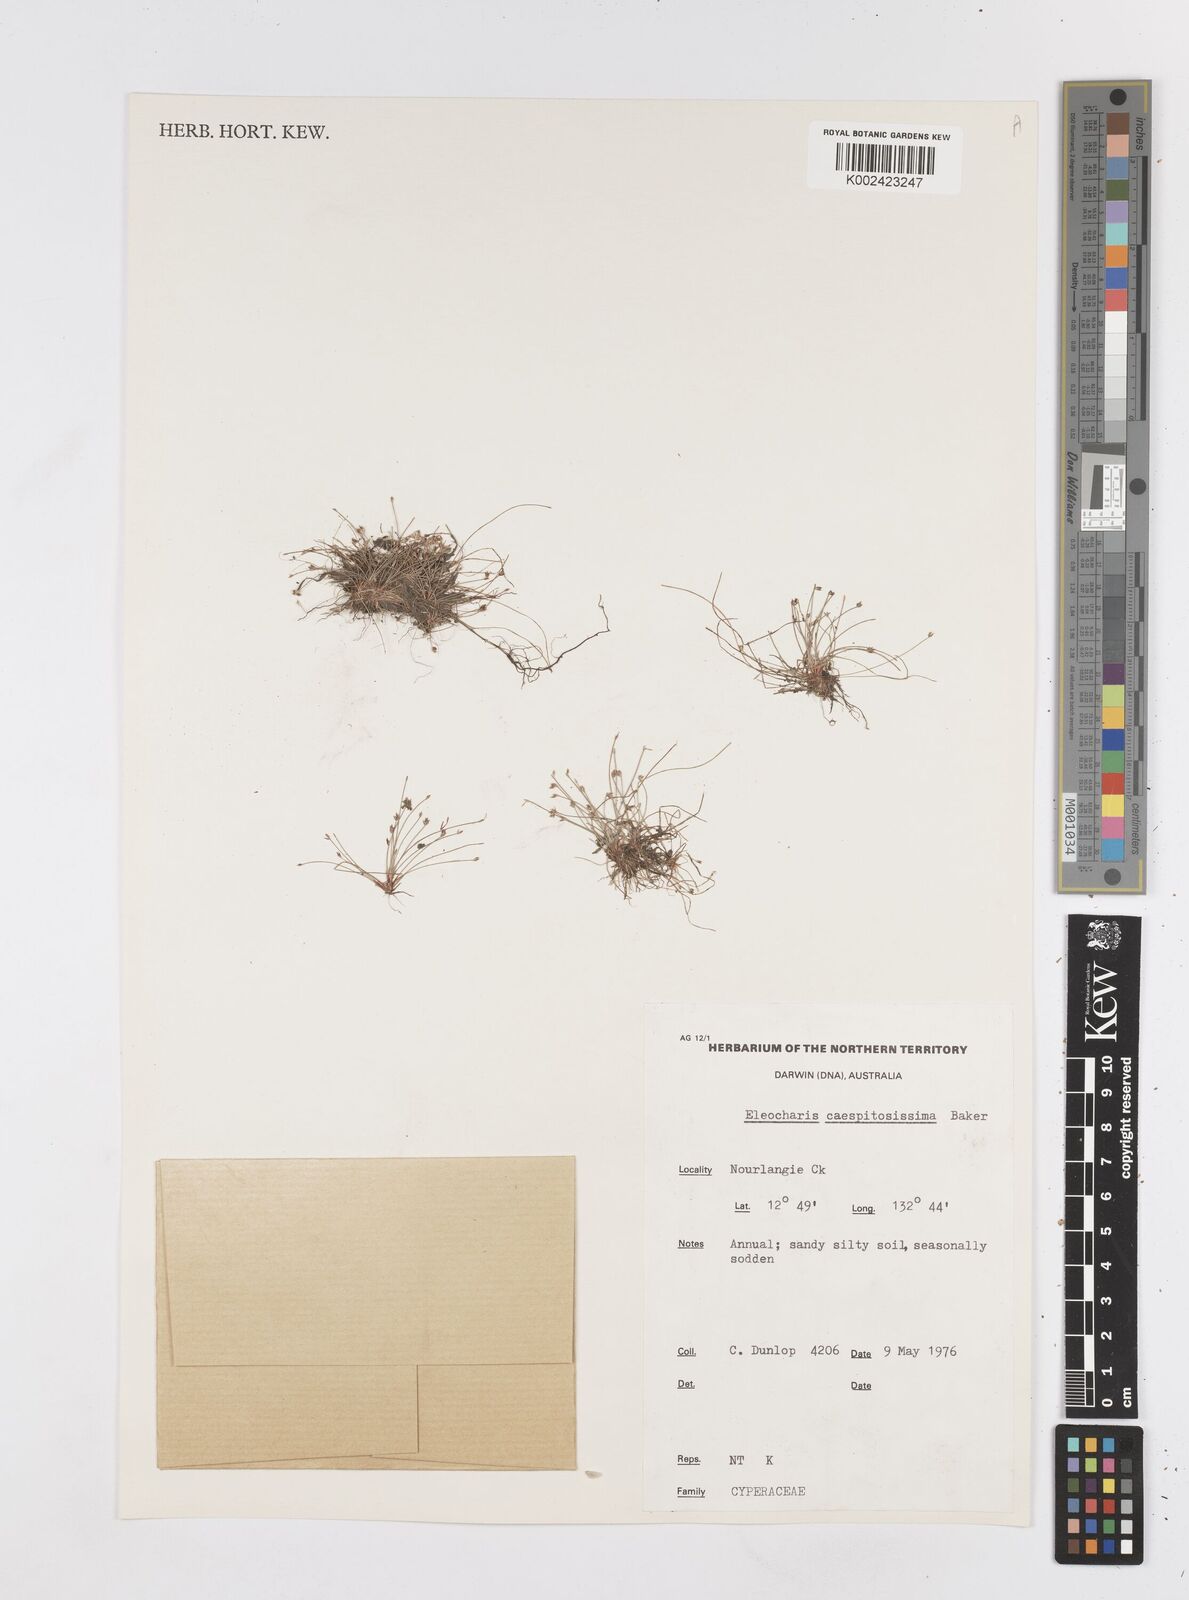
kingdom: Plantae
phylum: Tracheophyta
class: Liliopsida
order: Poales
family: Cyperaceae
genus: Eleocharis
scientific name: Eleocharis caespitosissima
